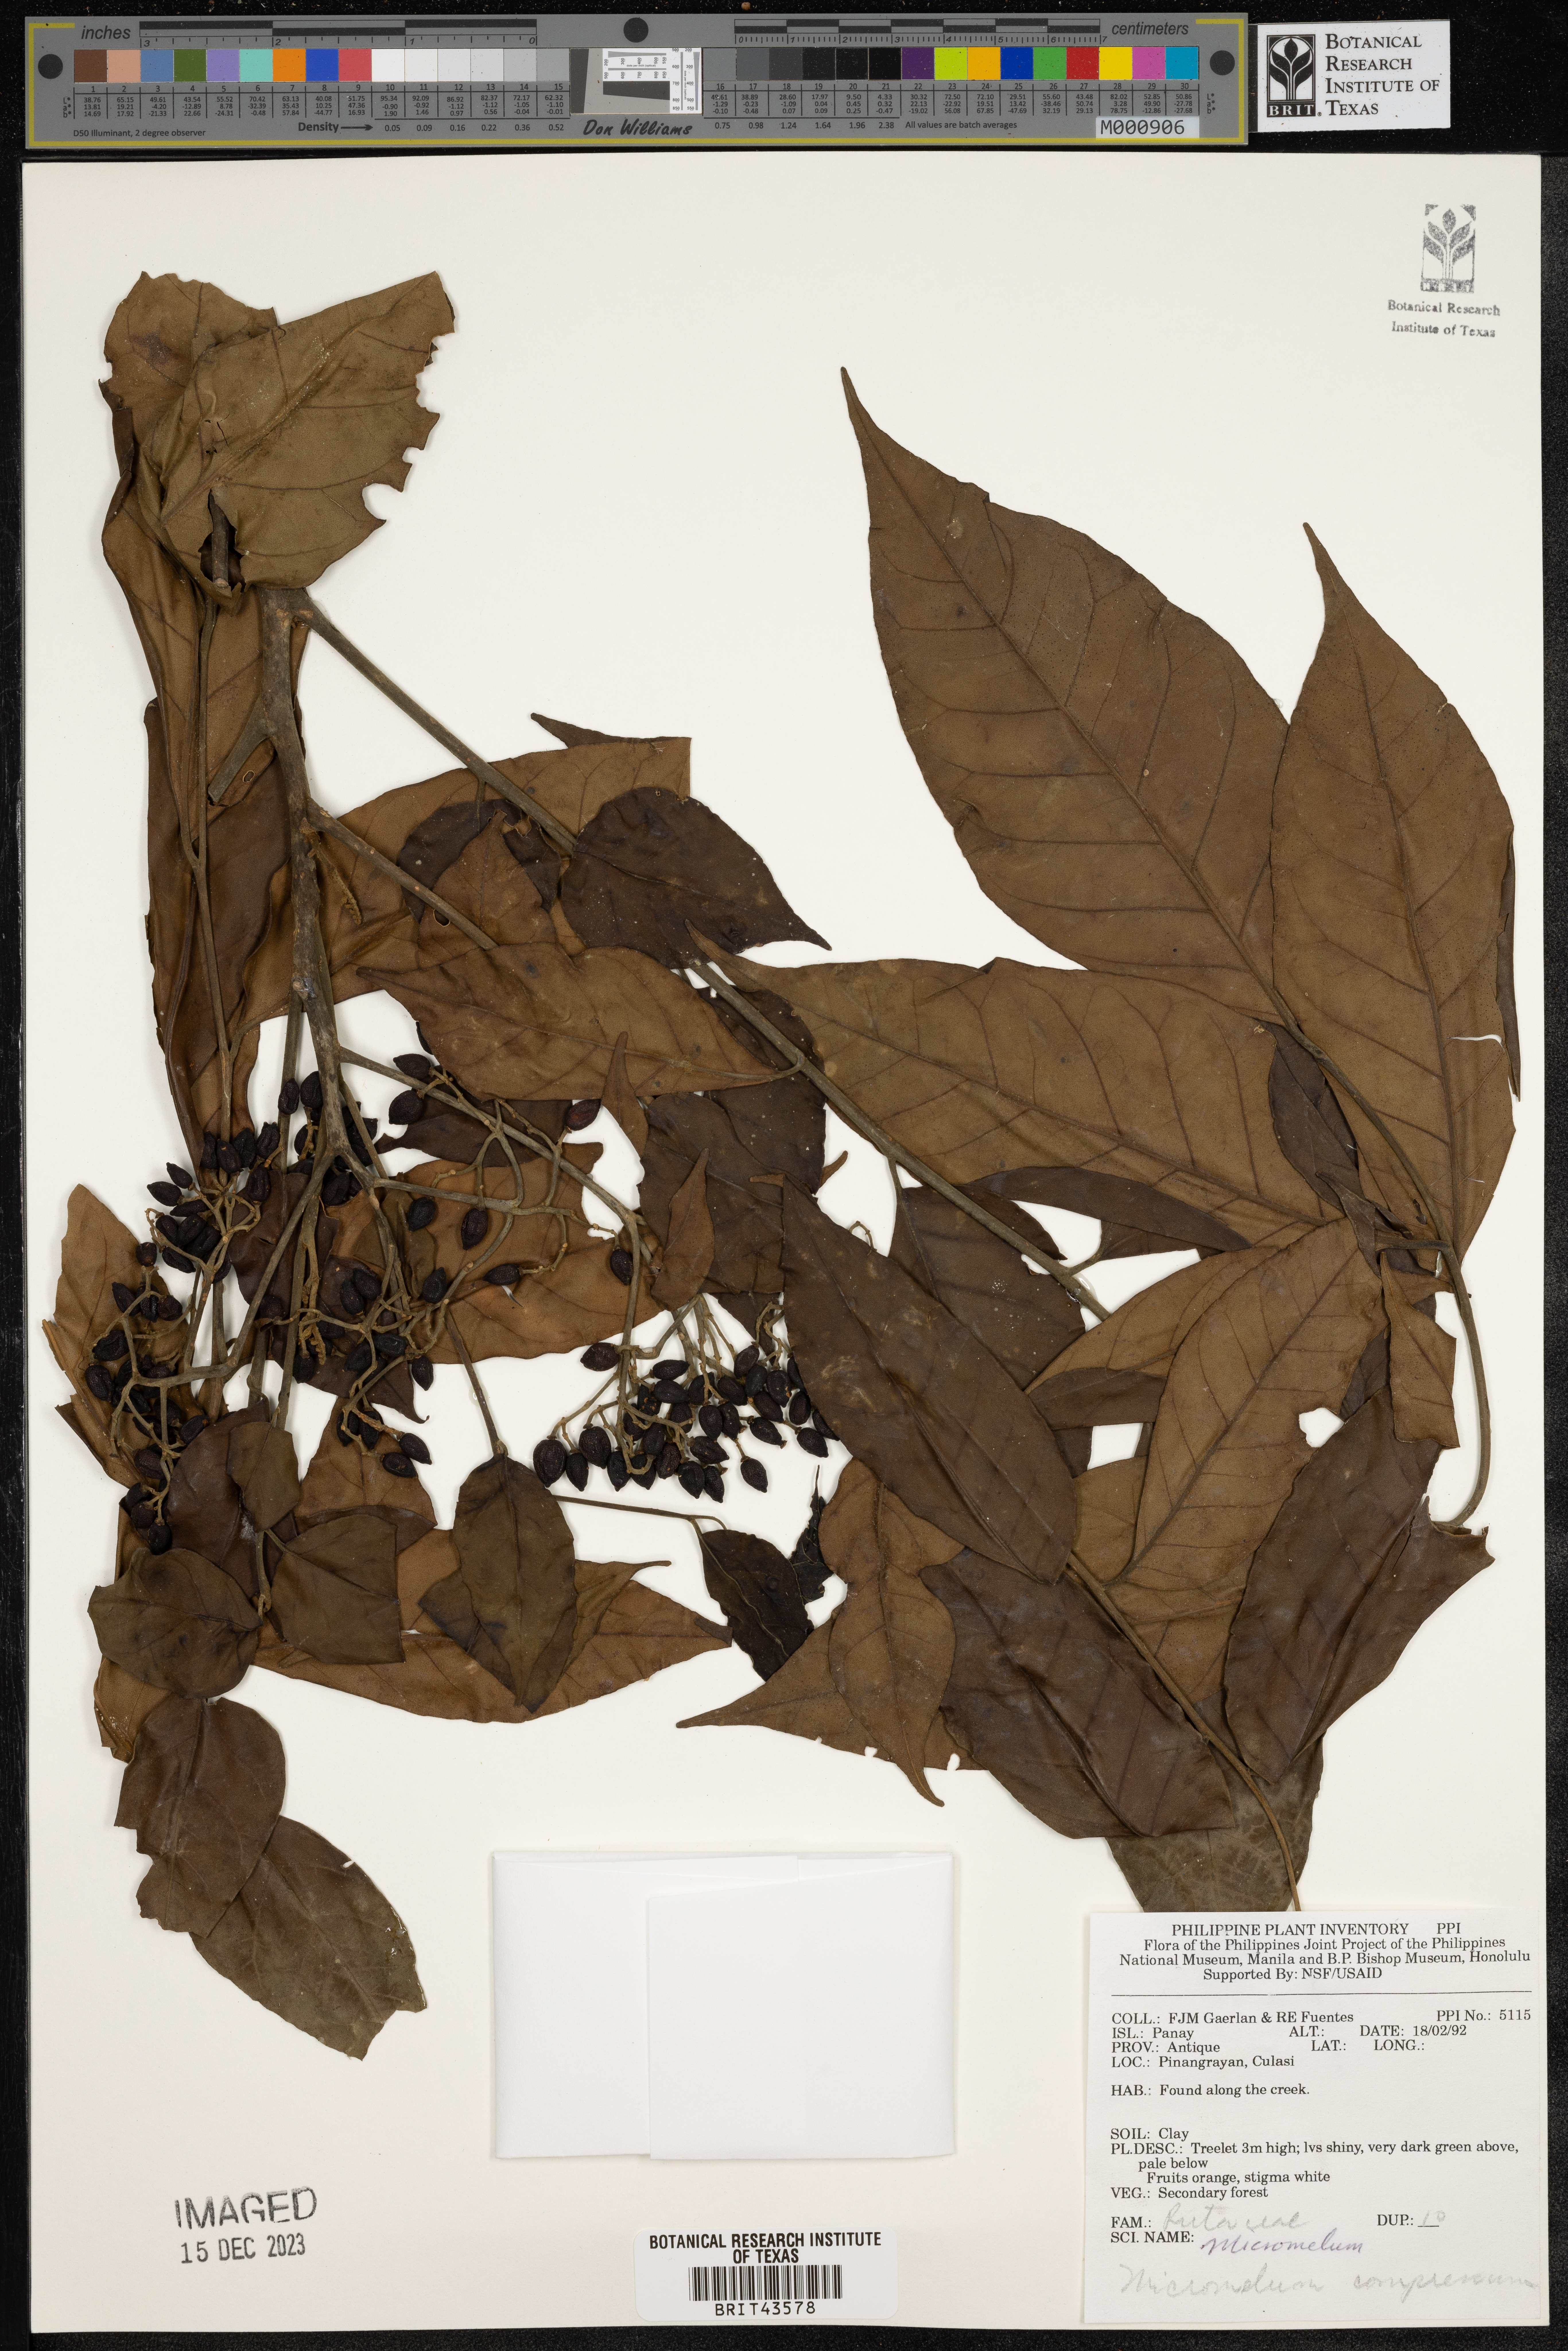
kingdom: Plantae
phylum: Tracheophyta
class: Magnoliopsida
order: Sapindales
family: Rutaceae
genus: Micromelum
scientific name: Micromelum compressum
